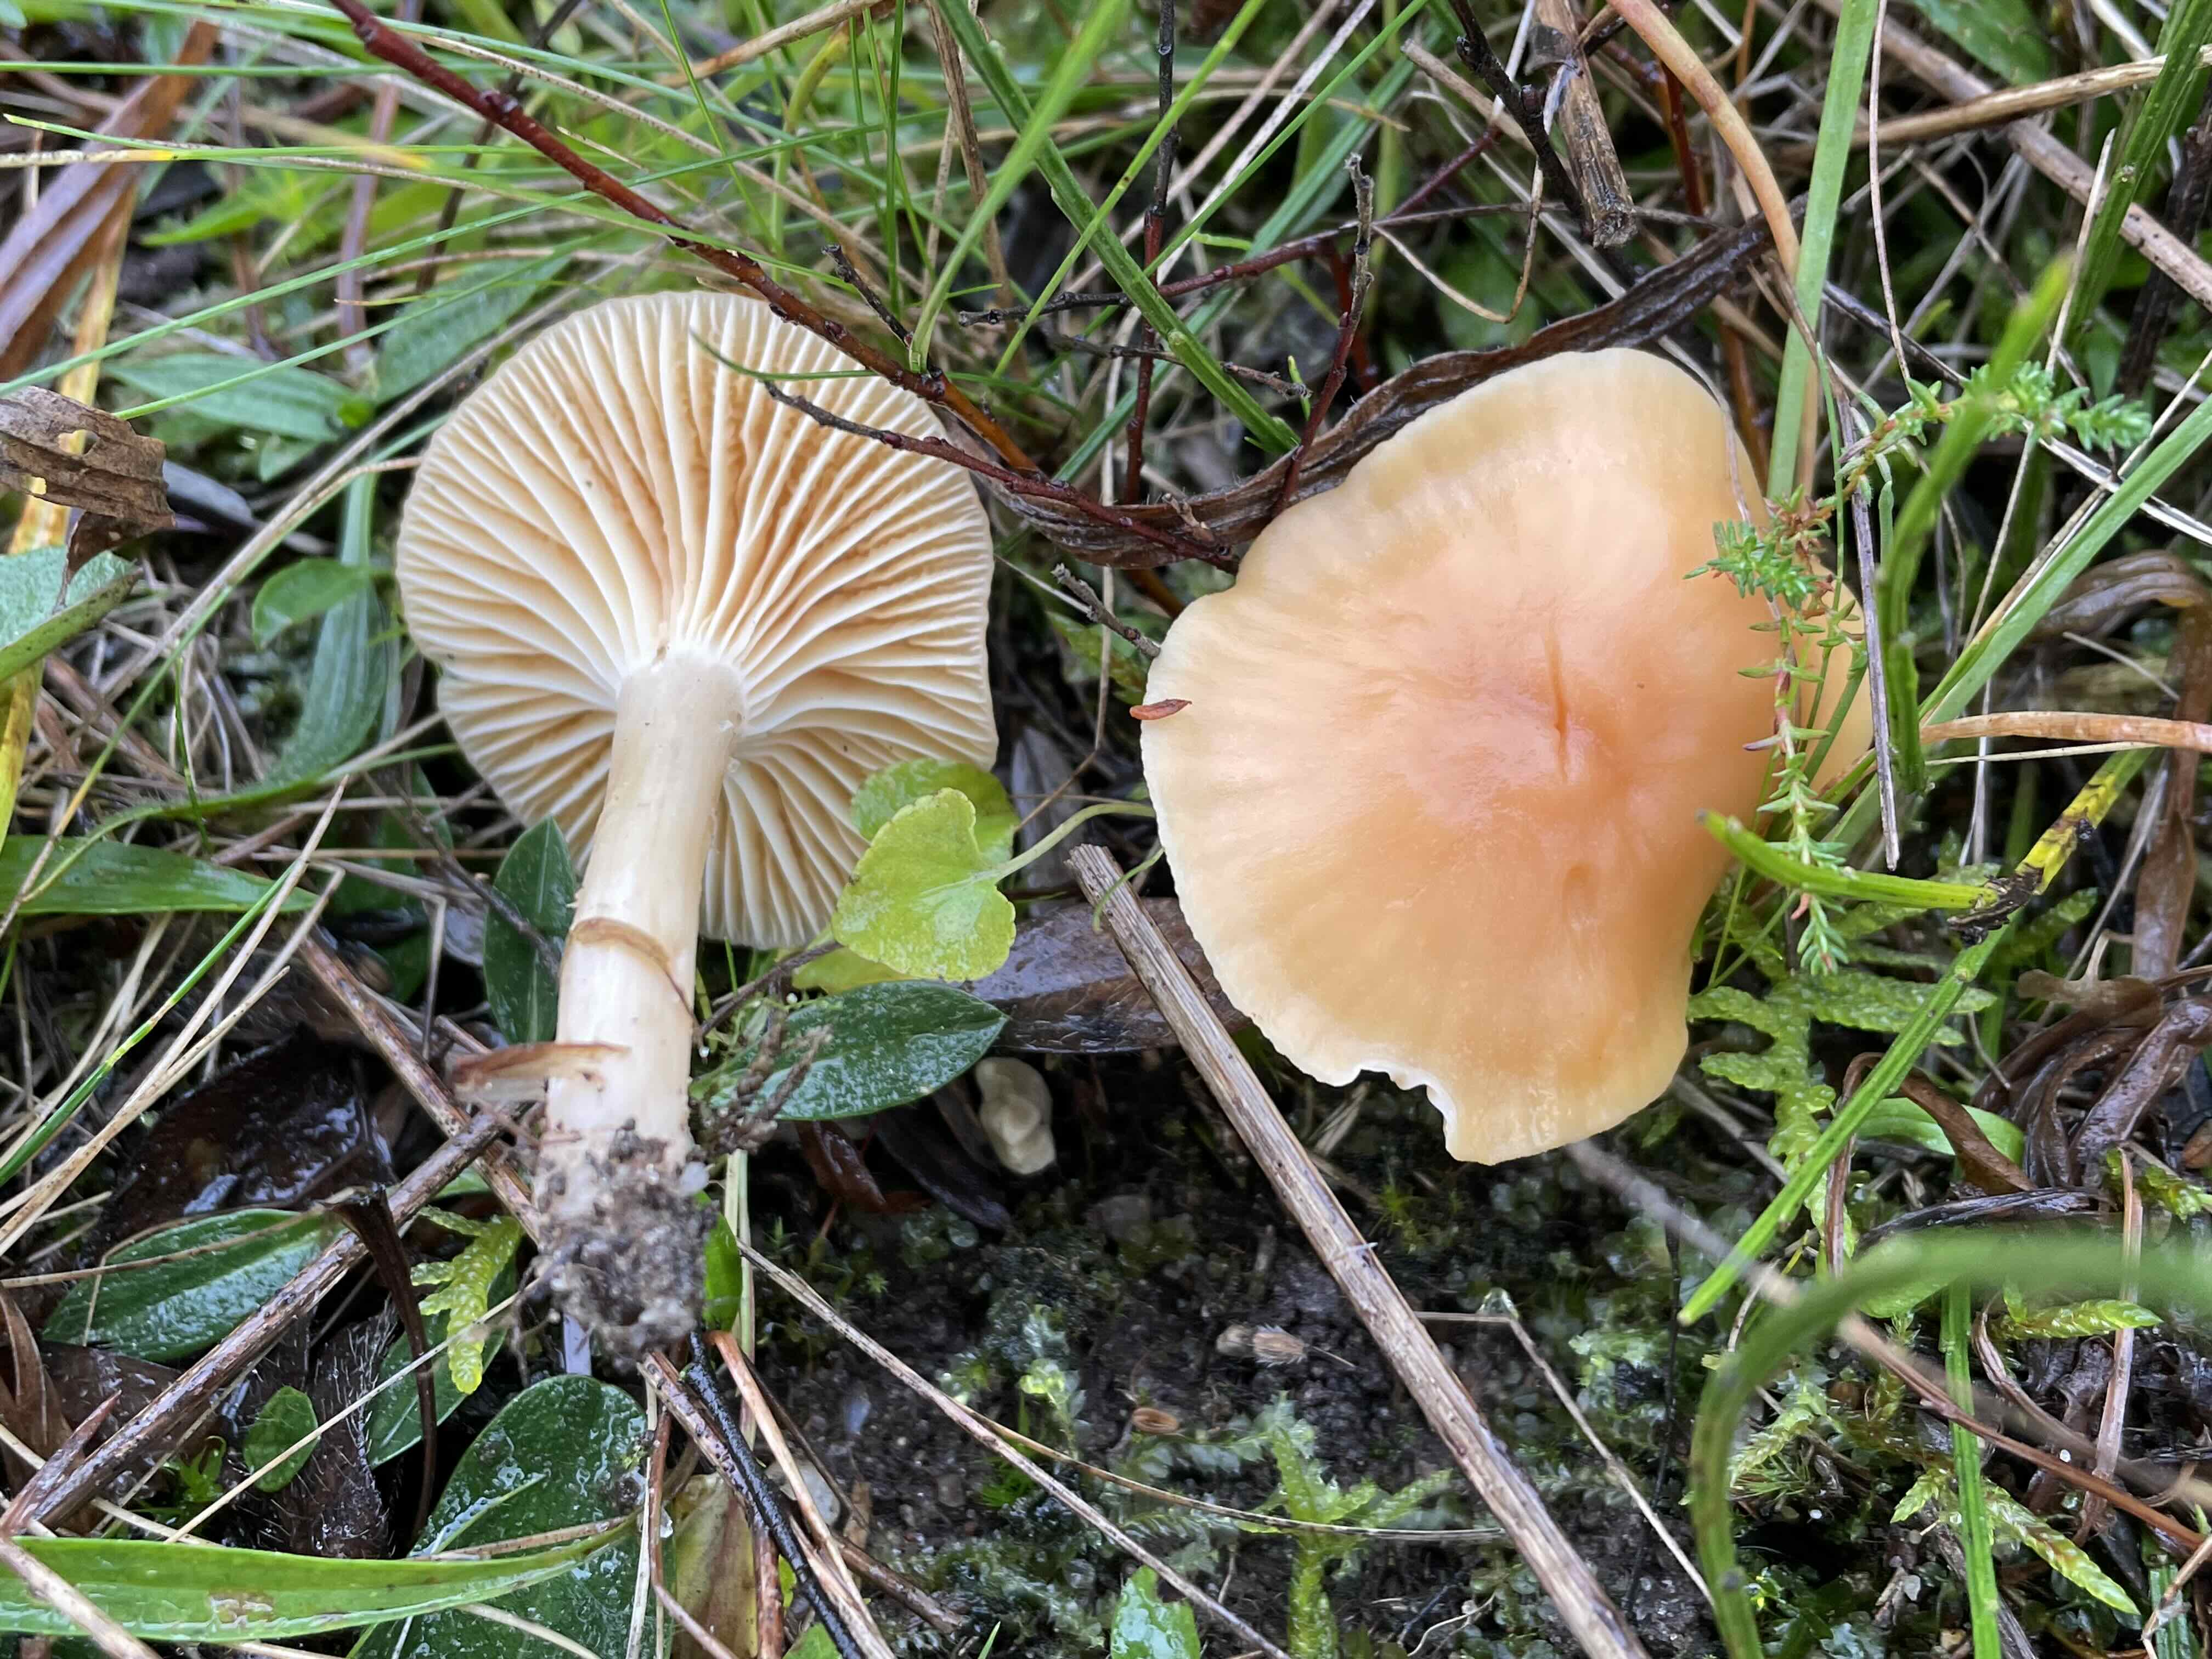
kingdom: Fungi
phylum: Basidiomycota
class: Agaricomycetes
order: Agaricales
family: Hygrophoraceae
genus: Cuphophyllus
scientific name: Cuphophyllus pratensis
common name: eng-vokshat
